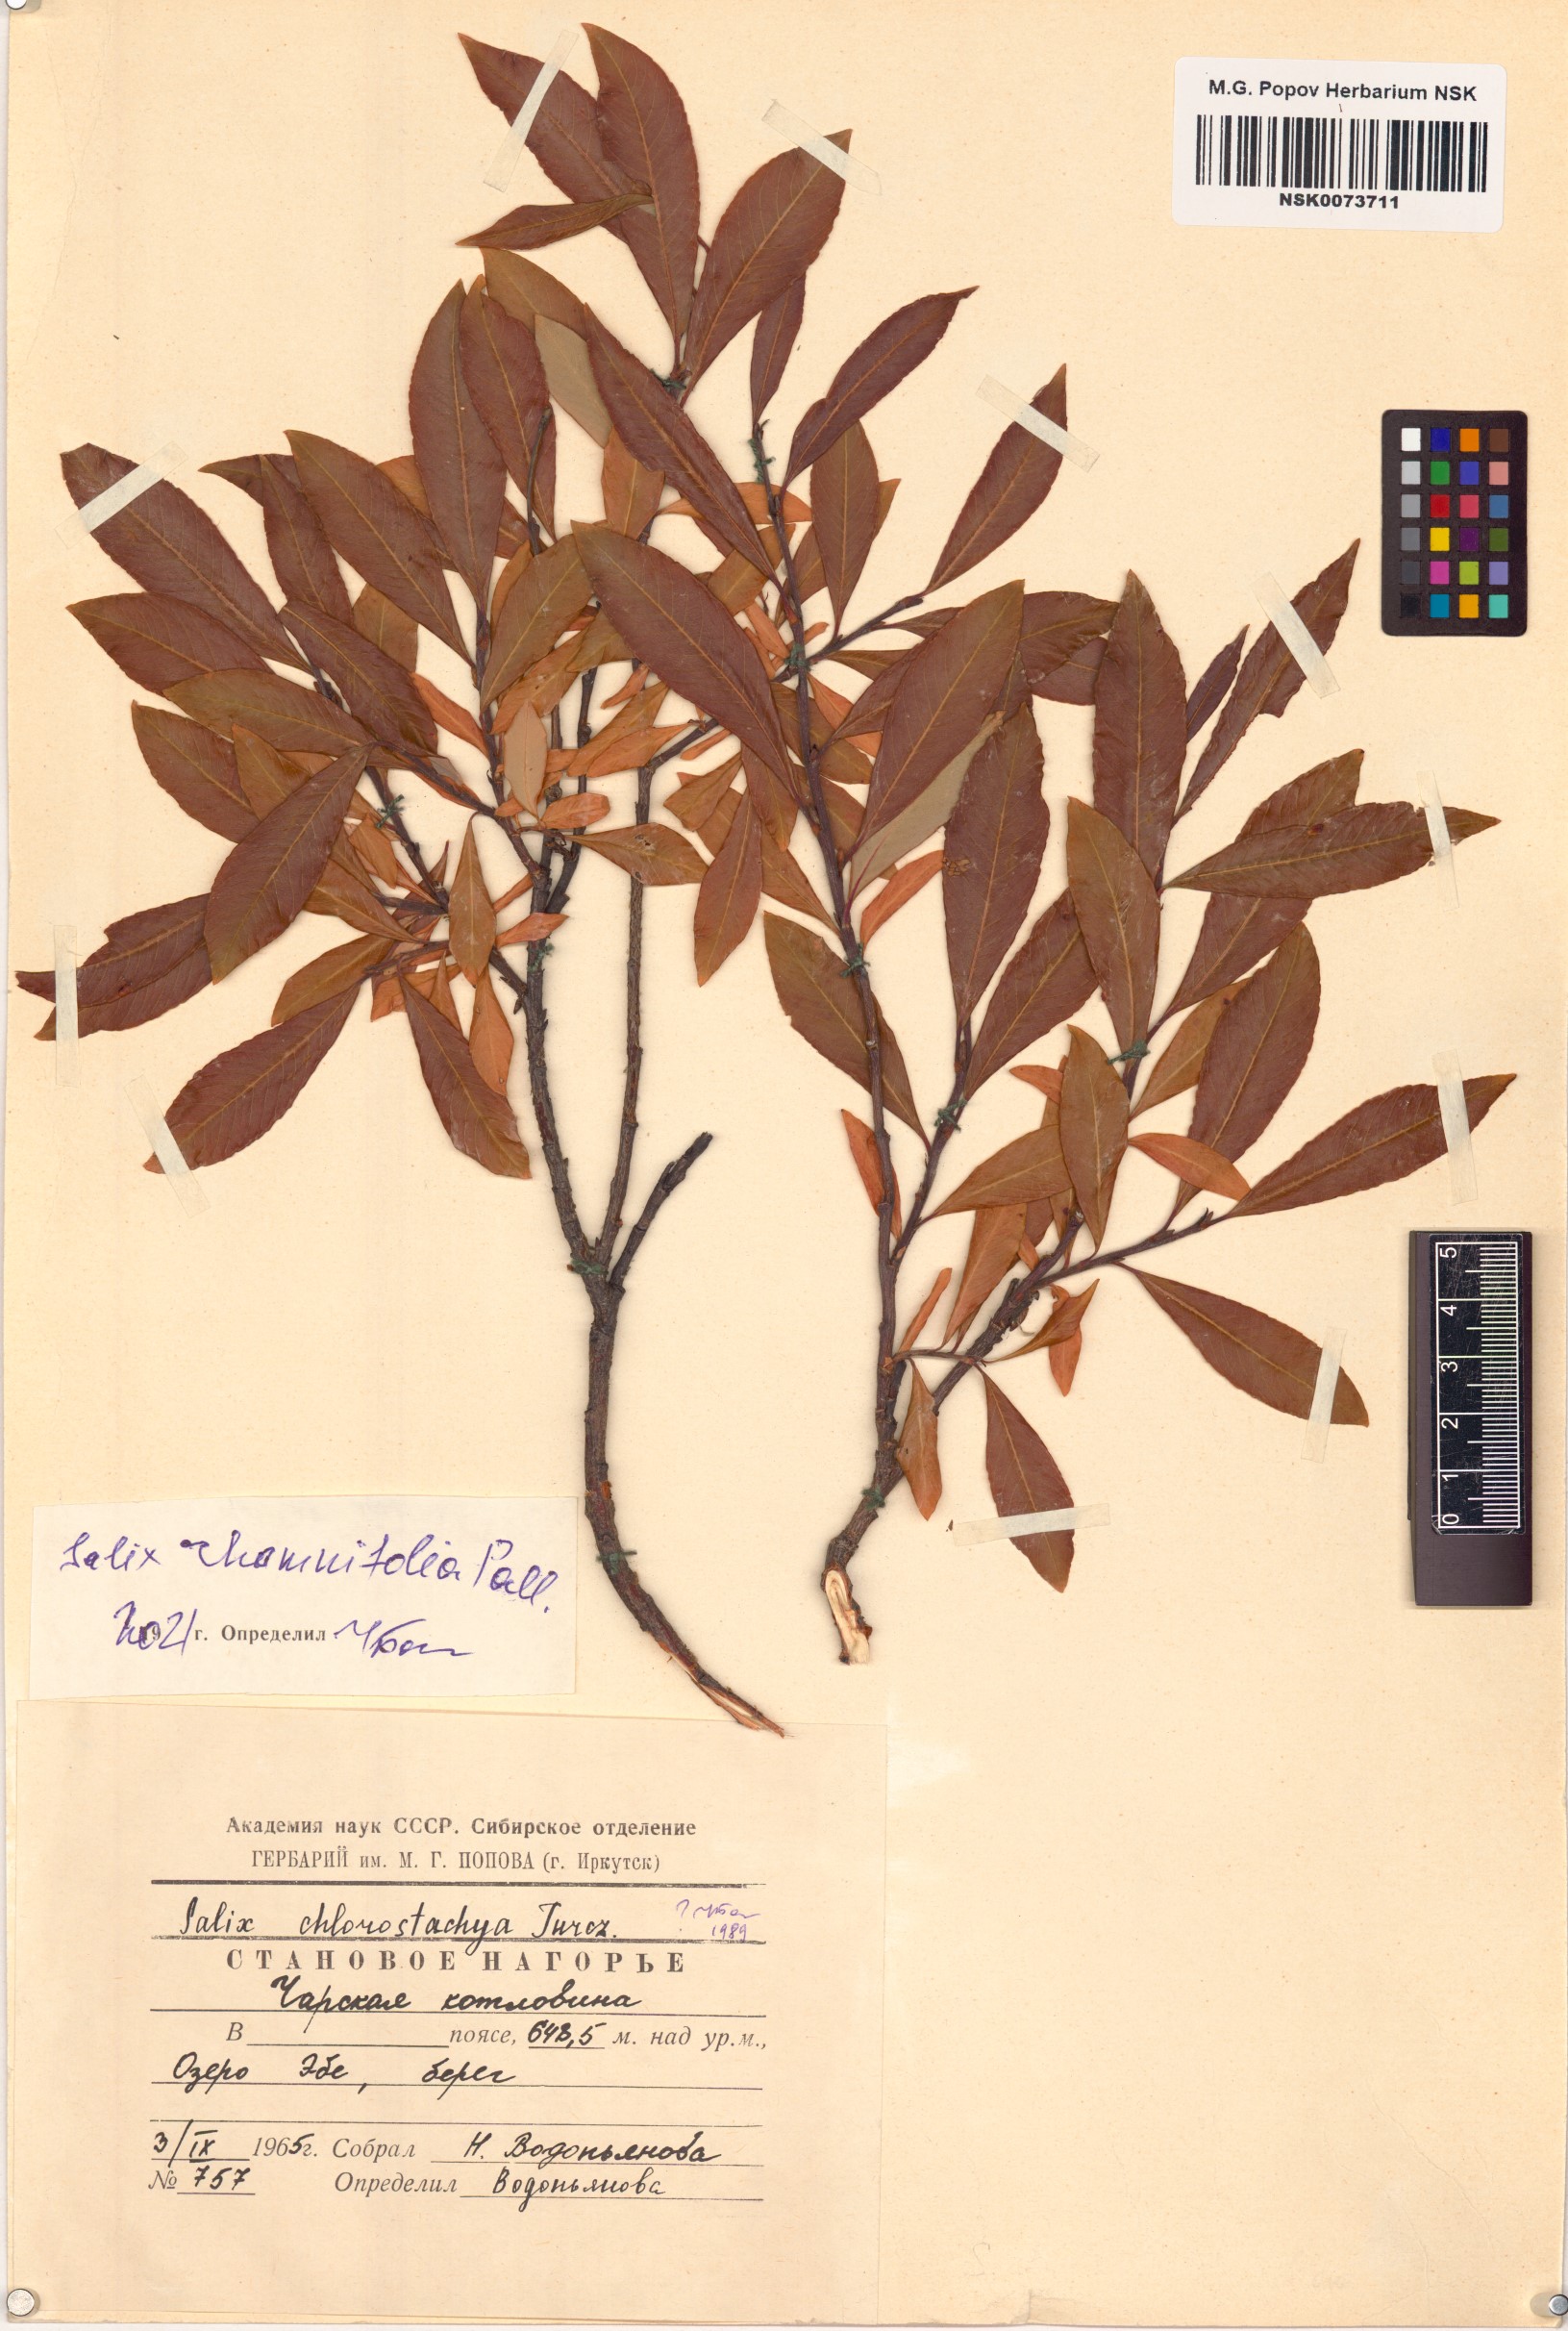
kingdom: Plantae
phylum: Tracheophyta
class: Magnoliopsida
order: Malpighiales
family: Salicaceae
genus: Salix
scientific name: Salix rhamnifolia
